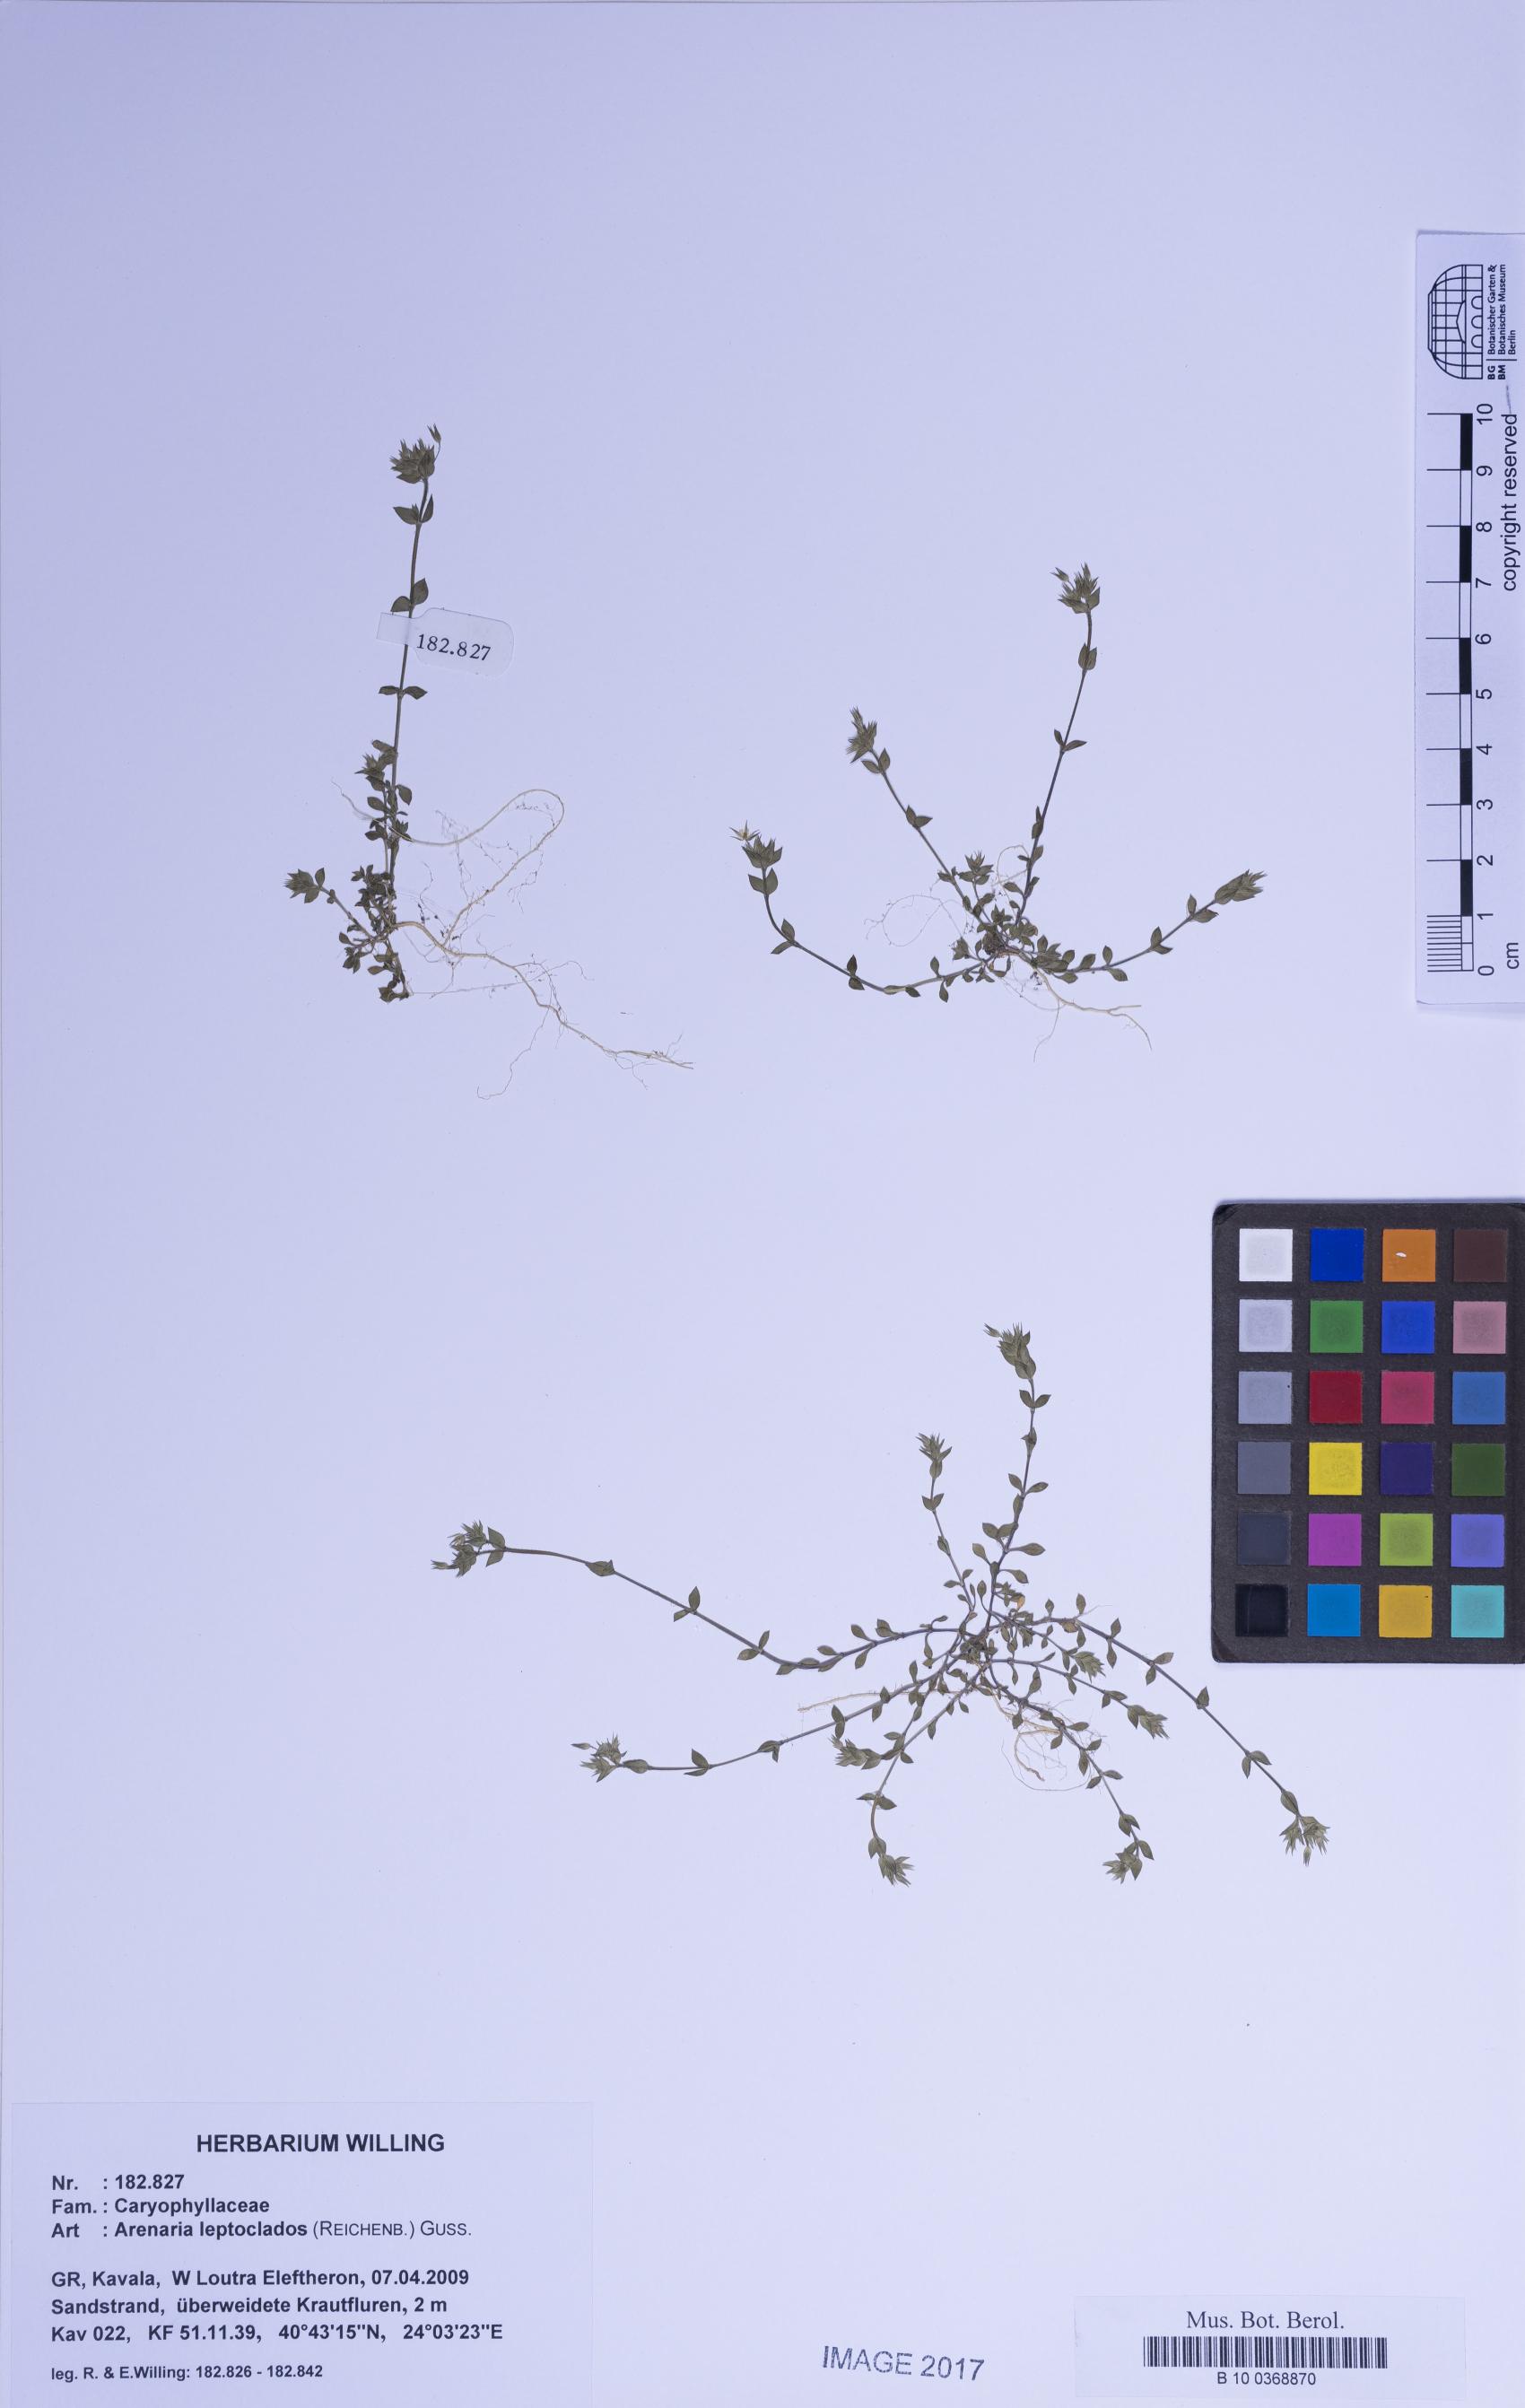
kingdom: Plantae
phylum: Tracheophyta
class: Magnoliopsida
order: Caryophyllales
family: Caryophyllaceae
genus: Arenaria
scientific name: Arenaria leptoclados
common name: Thyme-leaved sandwort
